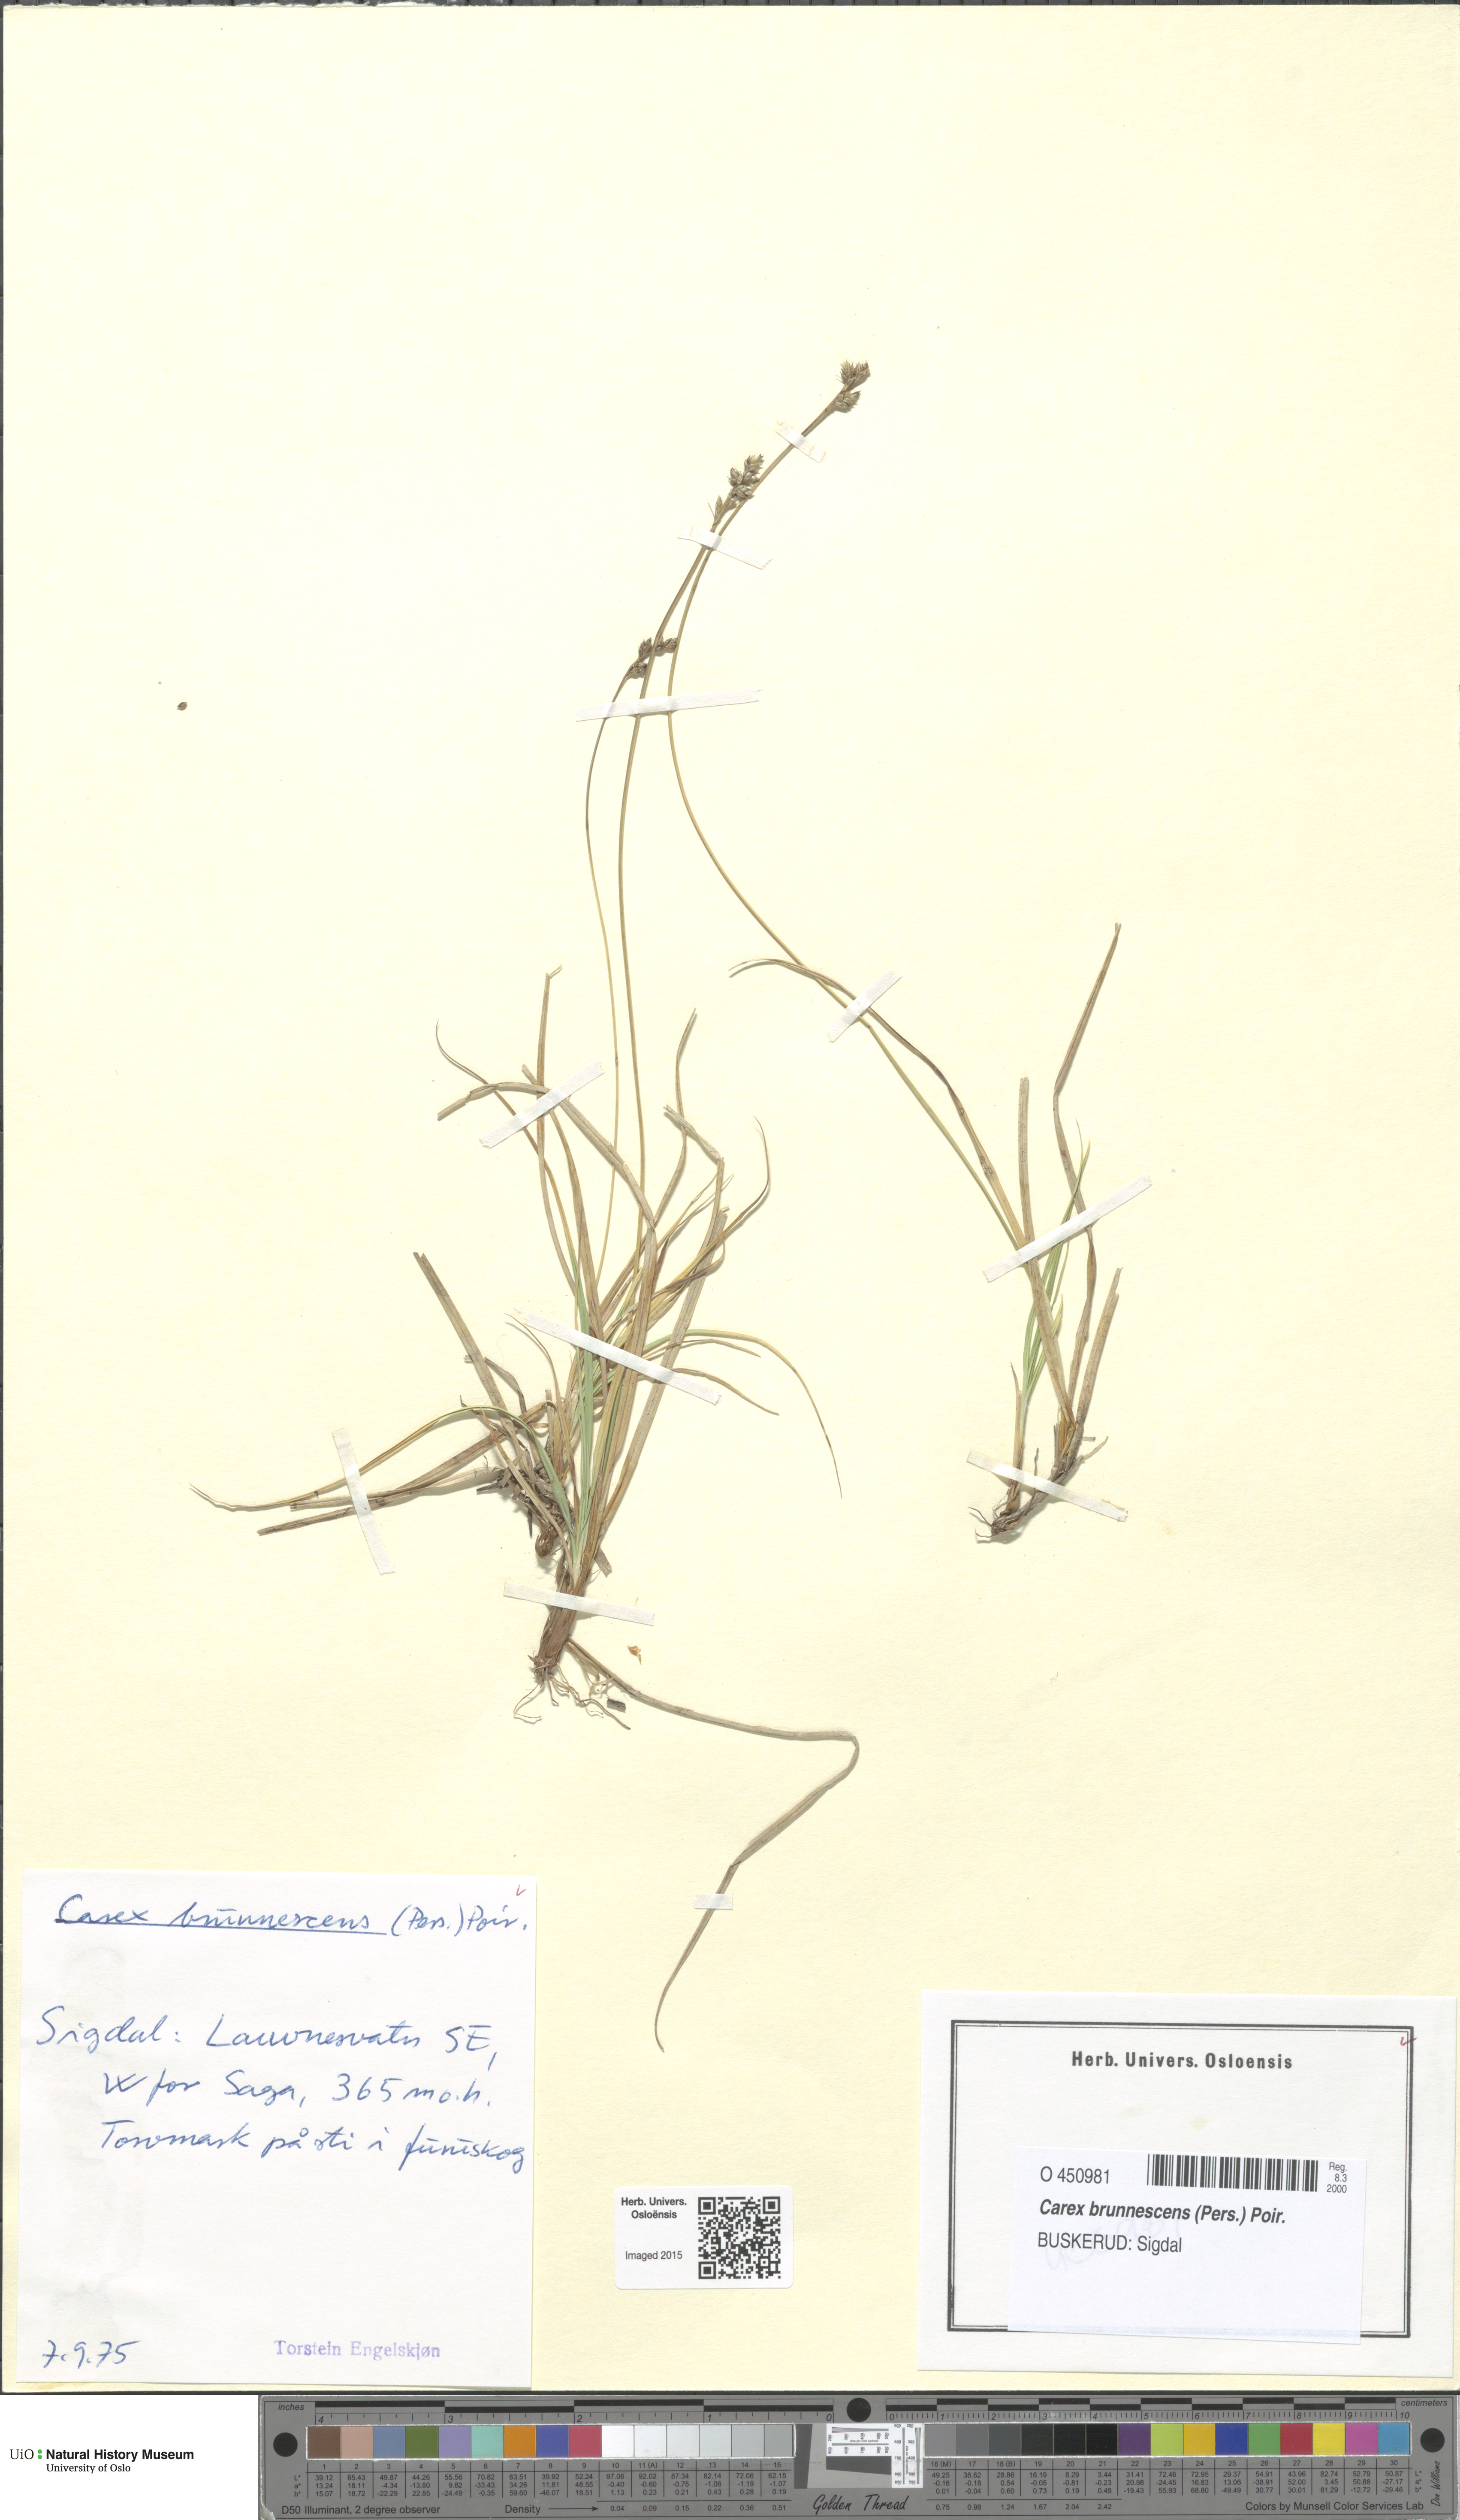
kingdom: Plantae
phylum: Tracheophyta
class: Liliopsida
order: Poales
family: Cyperaceae
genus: Carex
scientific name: Carex brunnescens
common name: Brown sedge
